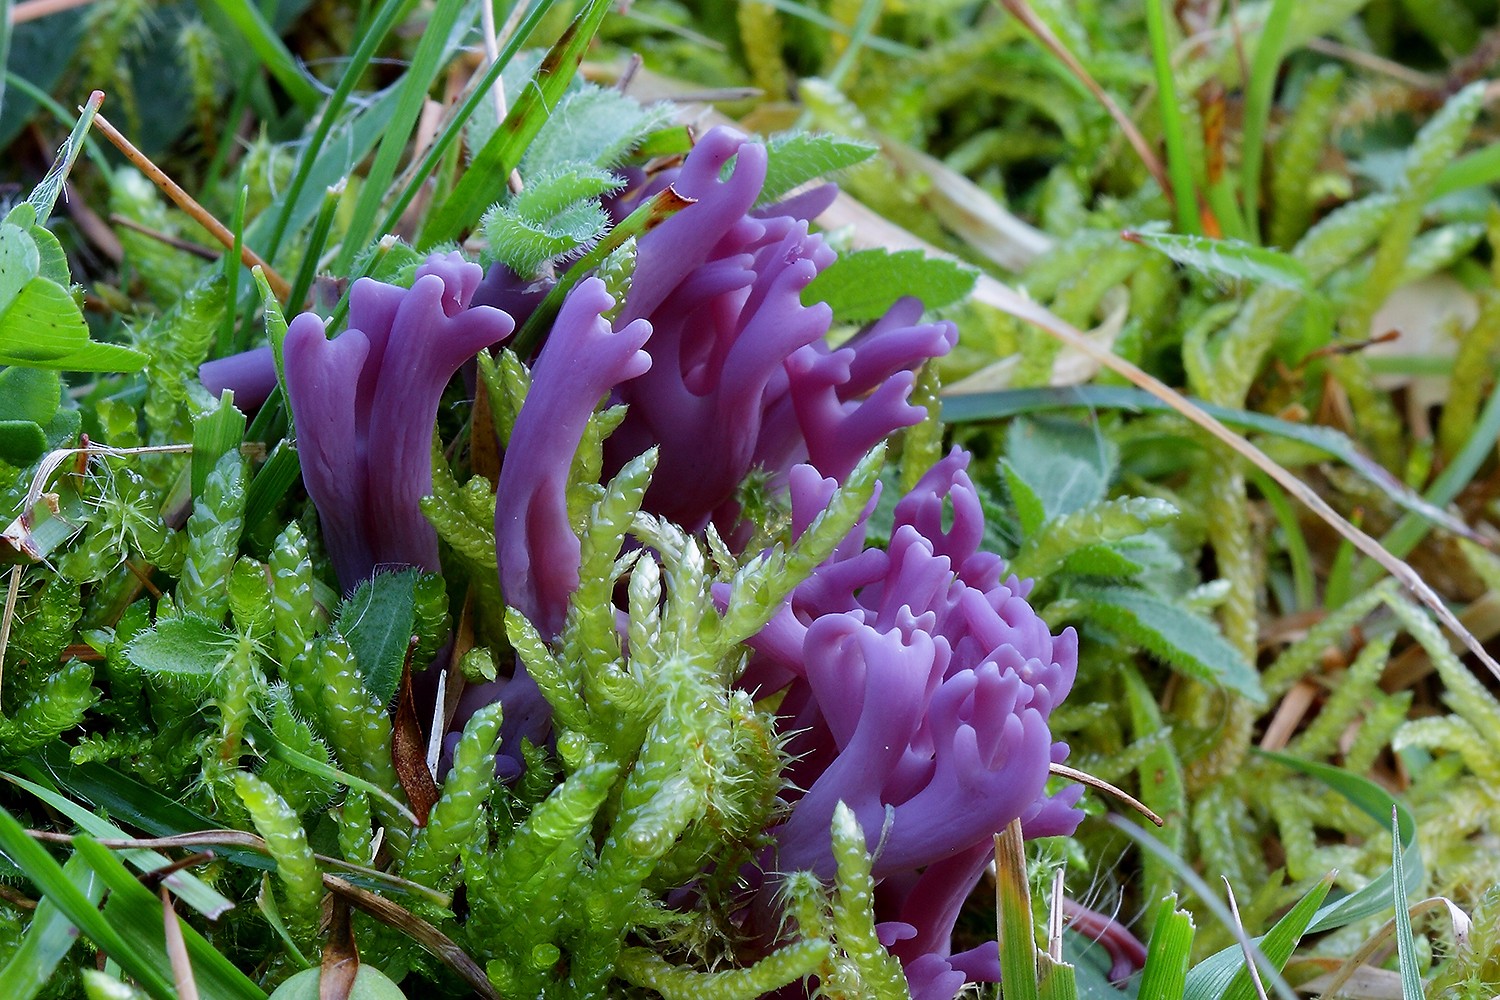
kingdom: Fungi
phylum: Basidiomycota
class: Agaricomycetes
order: Agaricales
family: Clavariaceae
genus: Clavaria
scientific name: Clavaria zollingeri
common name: purpur-køllesvamp
